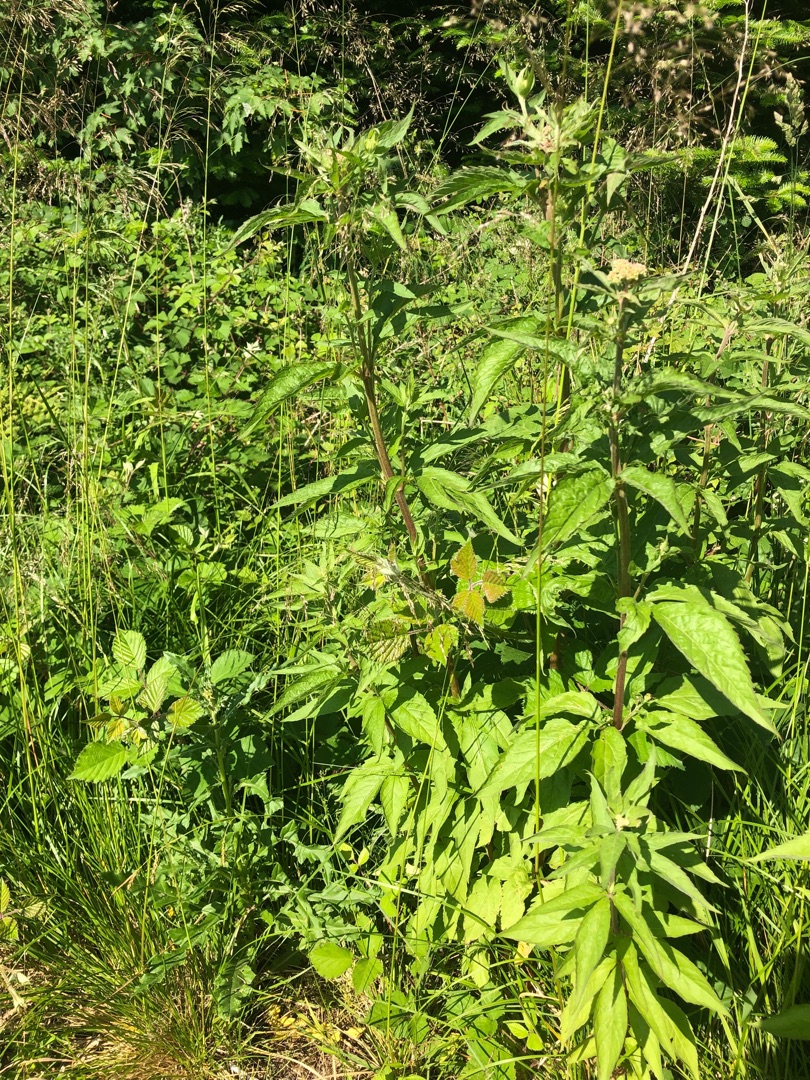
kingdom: Plantae
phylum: Tracheophyta
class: Magnoliopsida
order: Asterales
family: Asteraceae
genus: Eupatorium
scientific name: Eupatorium cannabinum
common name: Hjortetrøst
